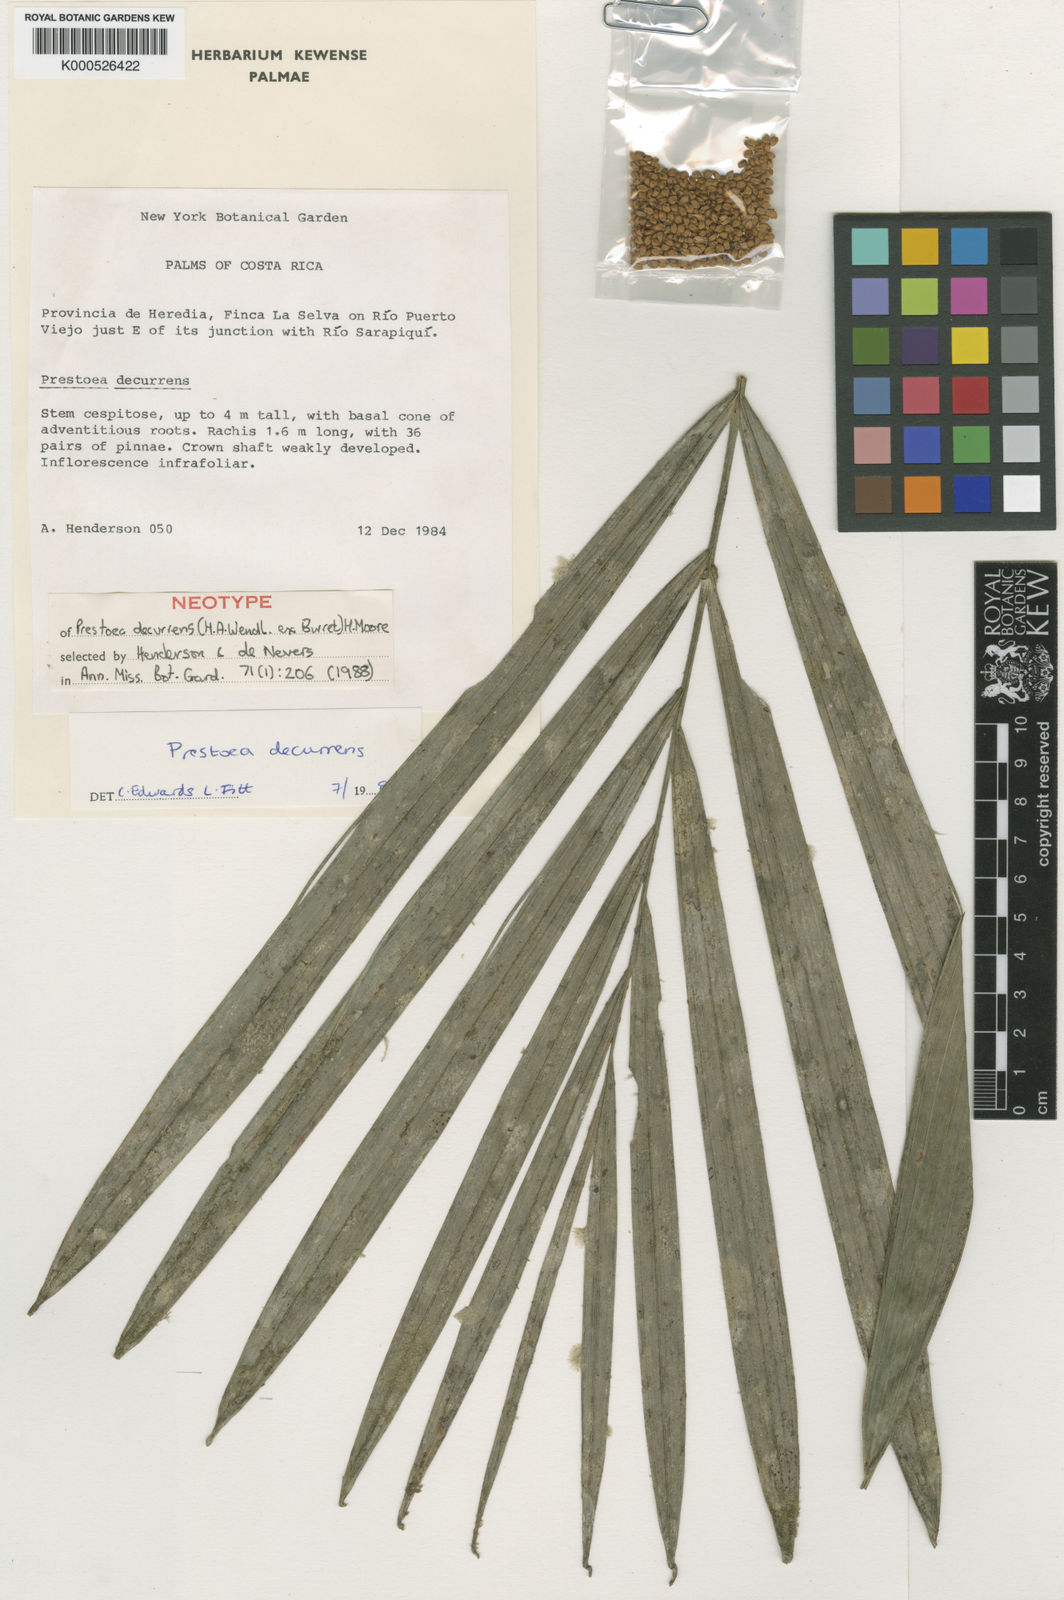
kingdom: Plantae
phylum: Tracheophyta
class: Liliopsida
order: Arecales
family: Arecaceae
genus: Prestoea
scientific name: Prestoea decurrens
